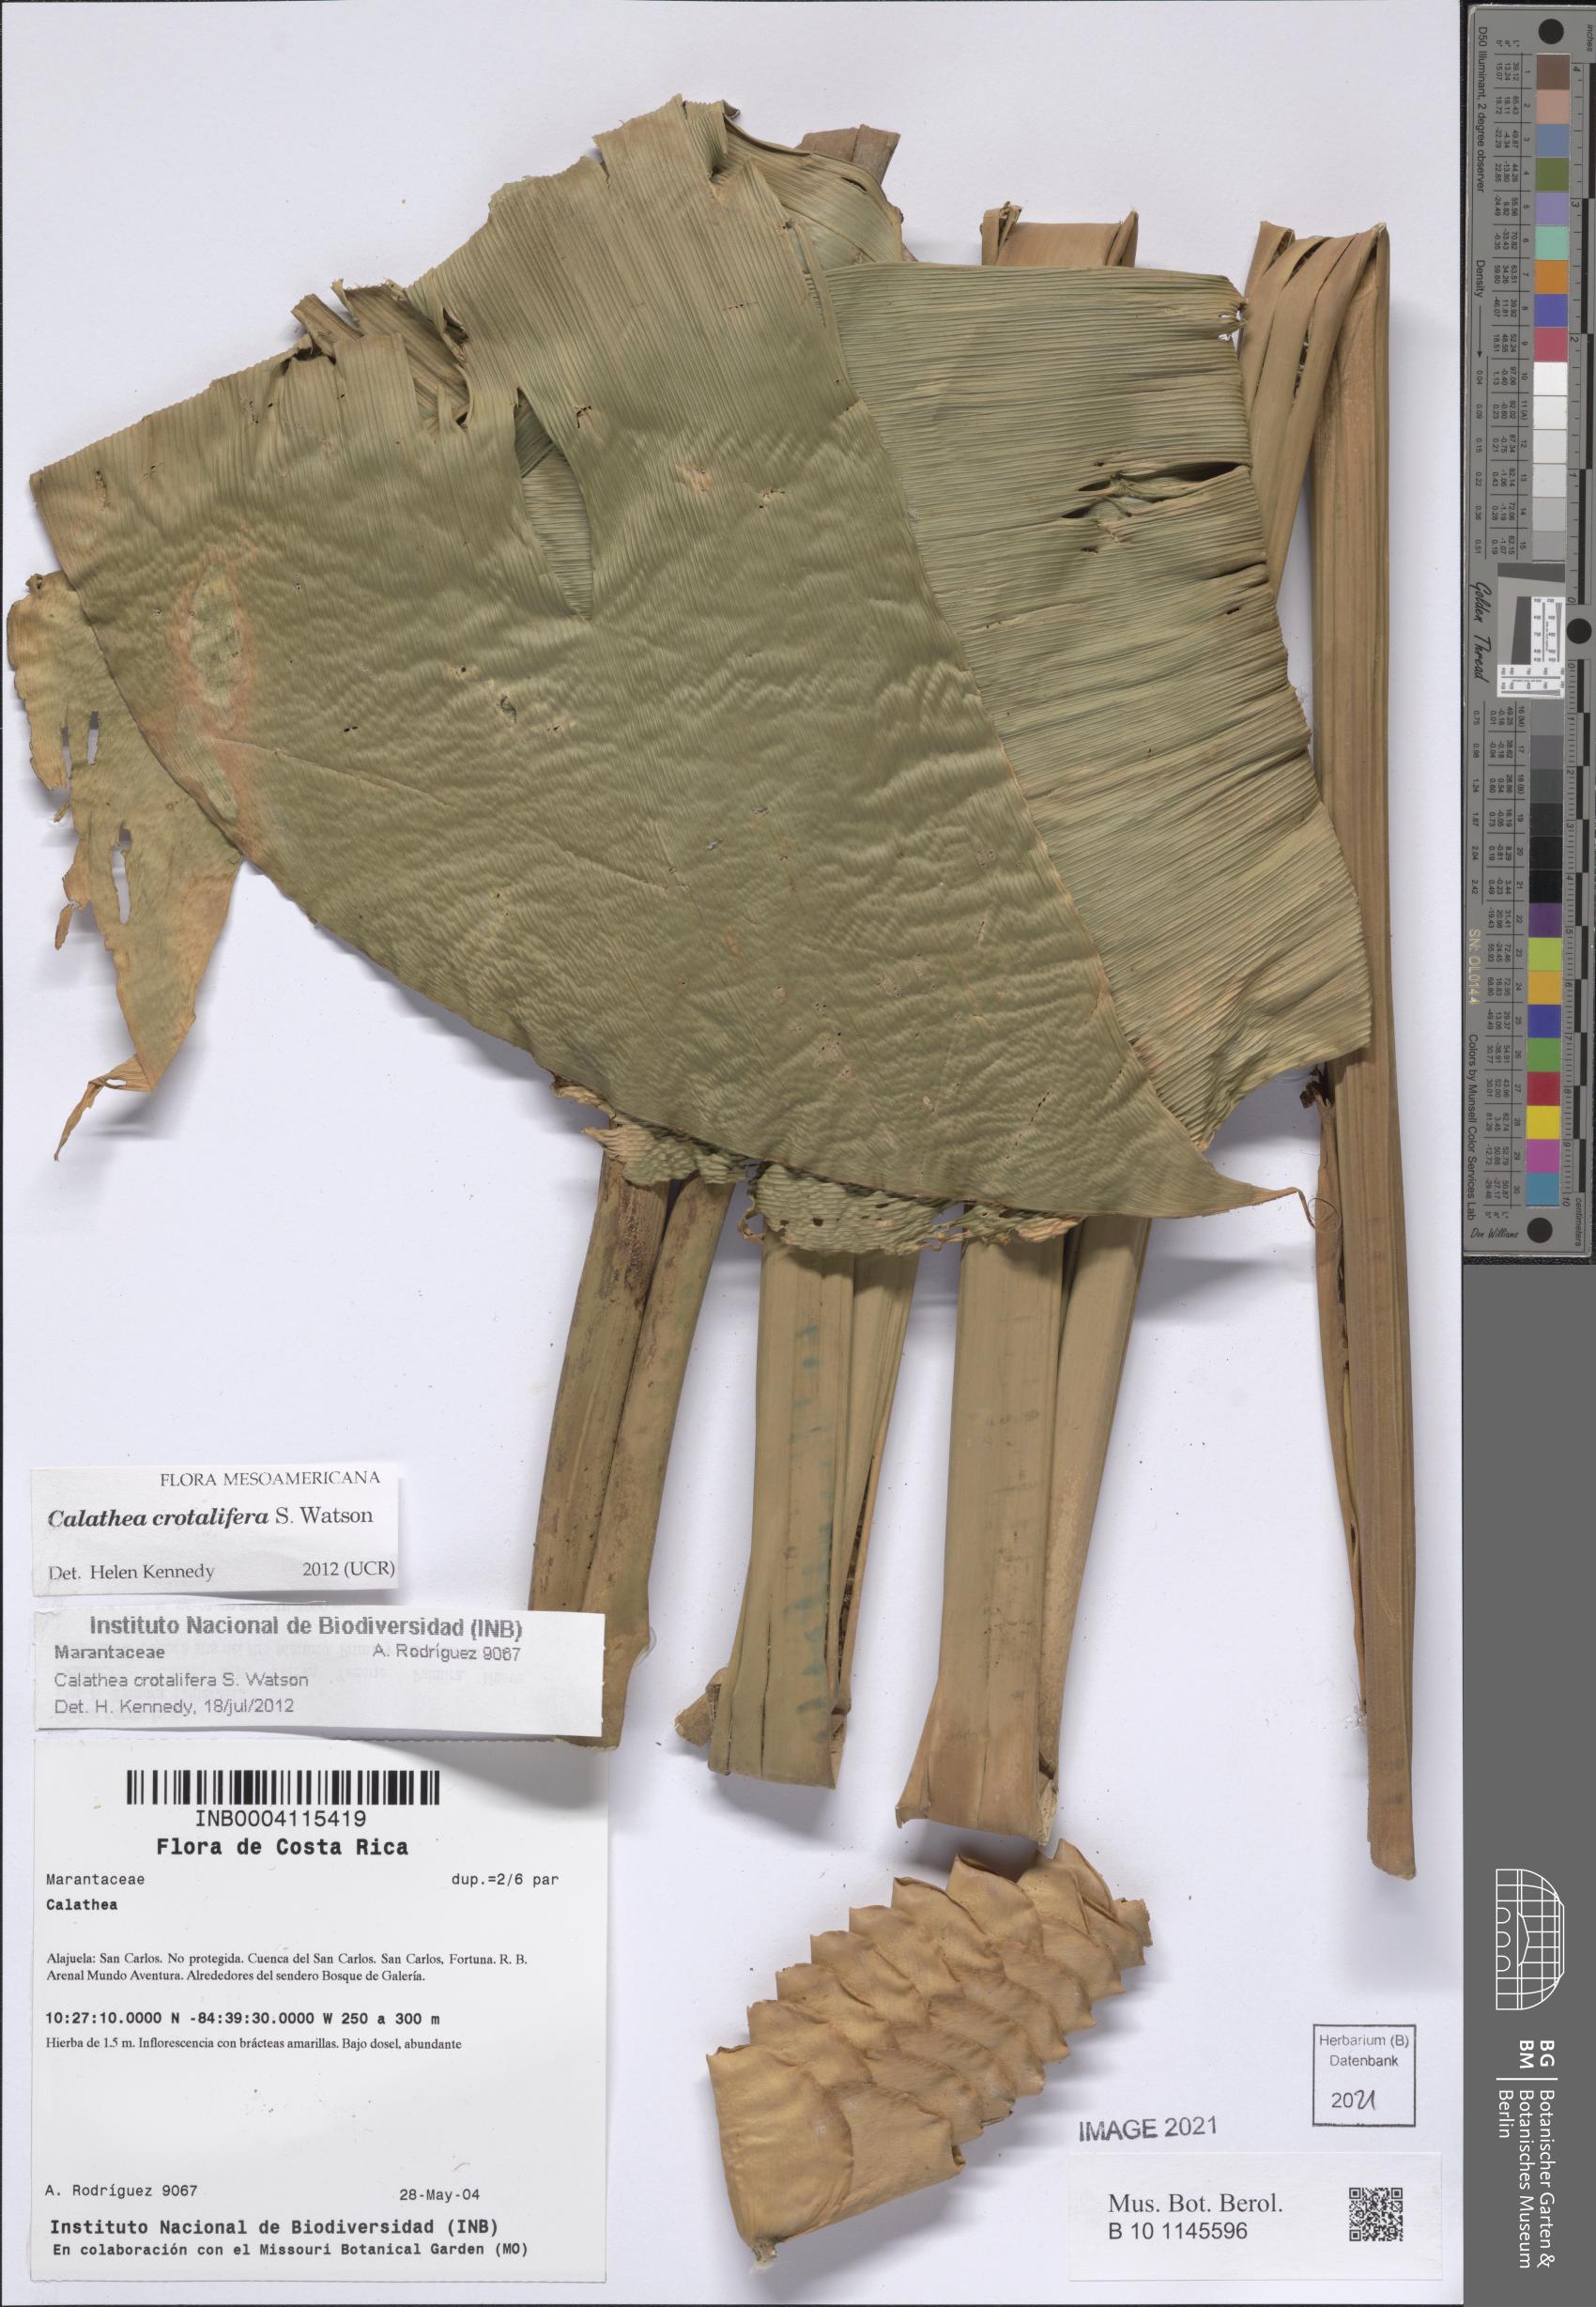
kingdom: Plantae
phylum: Tracheophyta
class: Liliopsida
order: Zingiberales
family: Marantaceae
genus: Calathea
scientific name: Calathea crotalifera
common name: Rattlesnake plant
